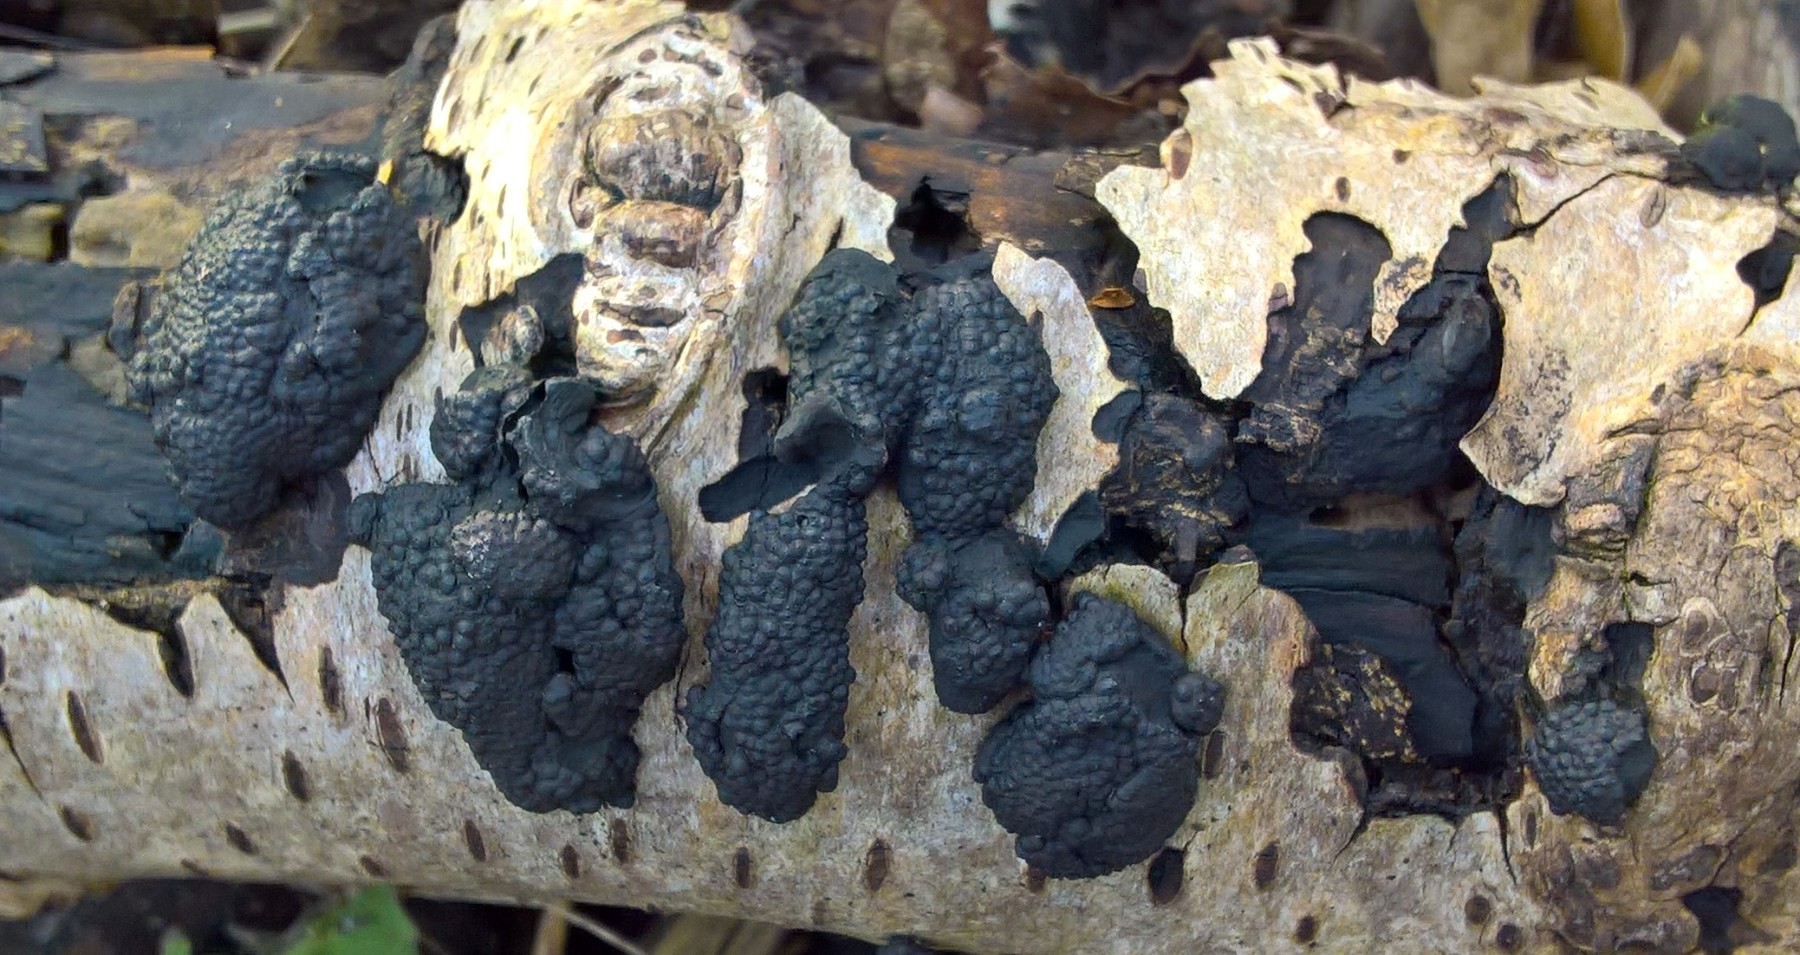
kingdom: Fungi
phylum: Ascomycota
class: Sordariomycetes
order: Xylariales
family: Hypoxylaceae
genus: Jackrogersella
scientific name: Jackrogersella multiformis
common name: foranderlig kulbær
